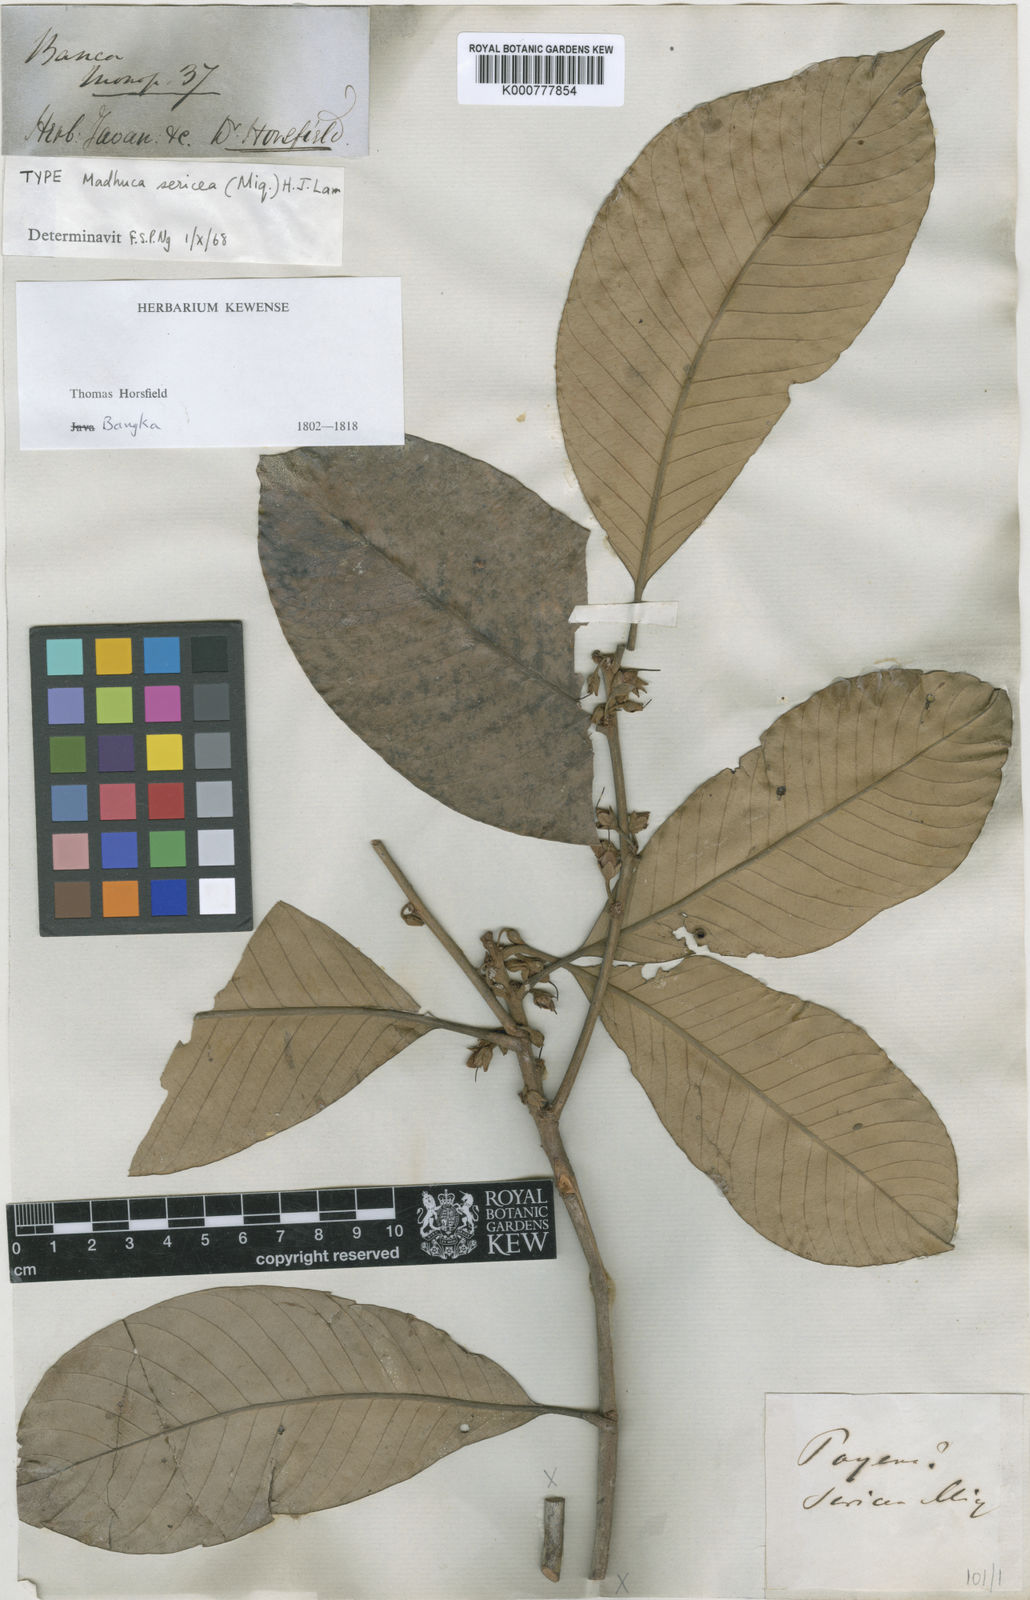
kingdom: Plantae
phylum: Tracheophyta
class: Magnoliopsida
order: Ericales
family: Sapotaceae
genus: Madhuca
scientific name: Madhuca
